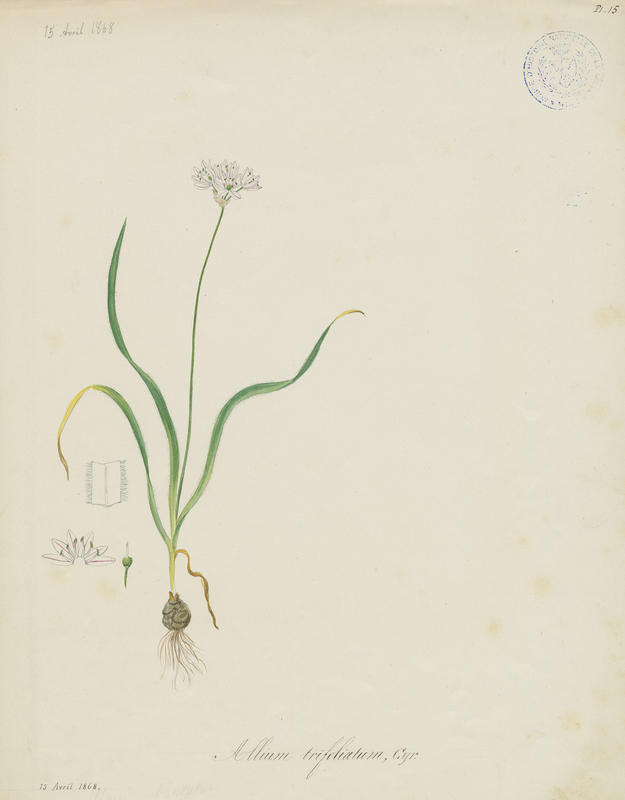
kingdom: Plantae
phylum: Tracheophyta
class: Liliopsida
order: Asparagales
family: Amaryllidaceae
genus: Allium
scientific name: Allium trifoliatum
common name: Pink garlic
